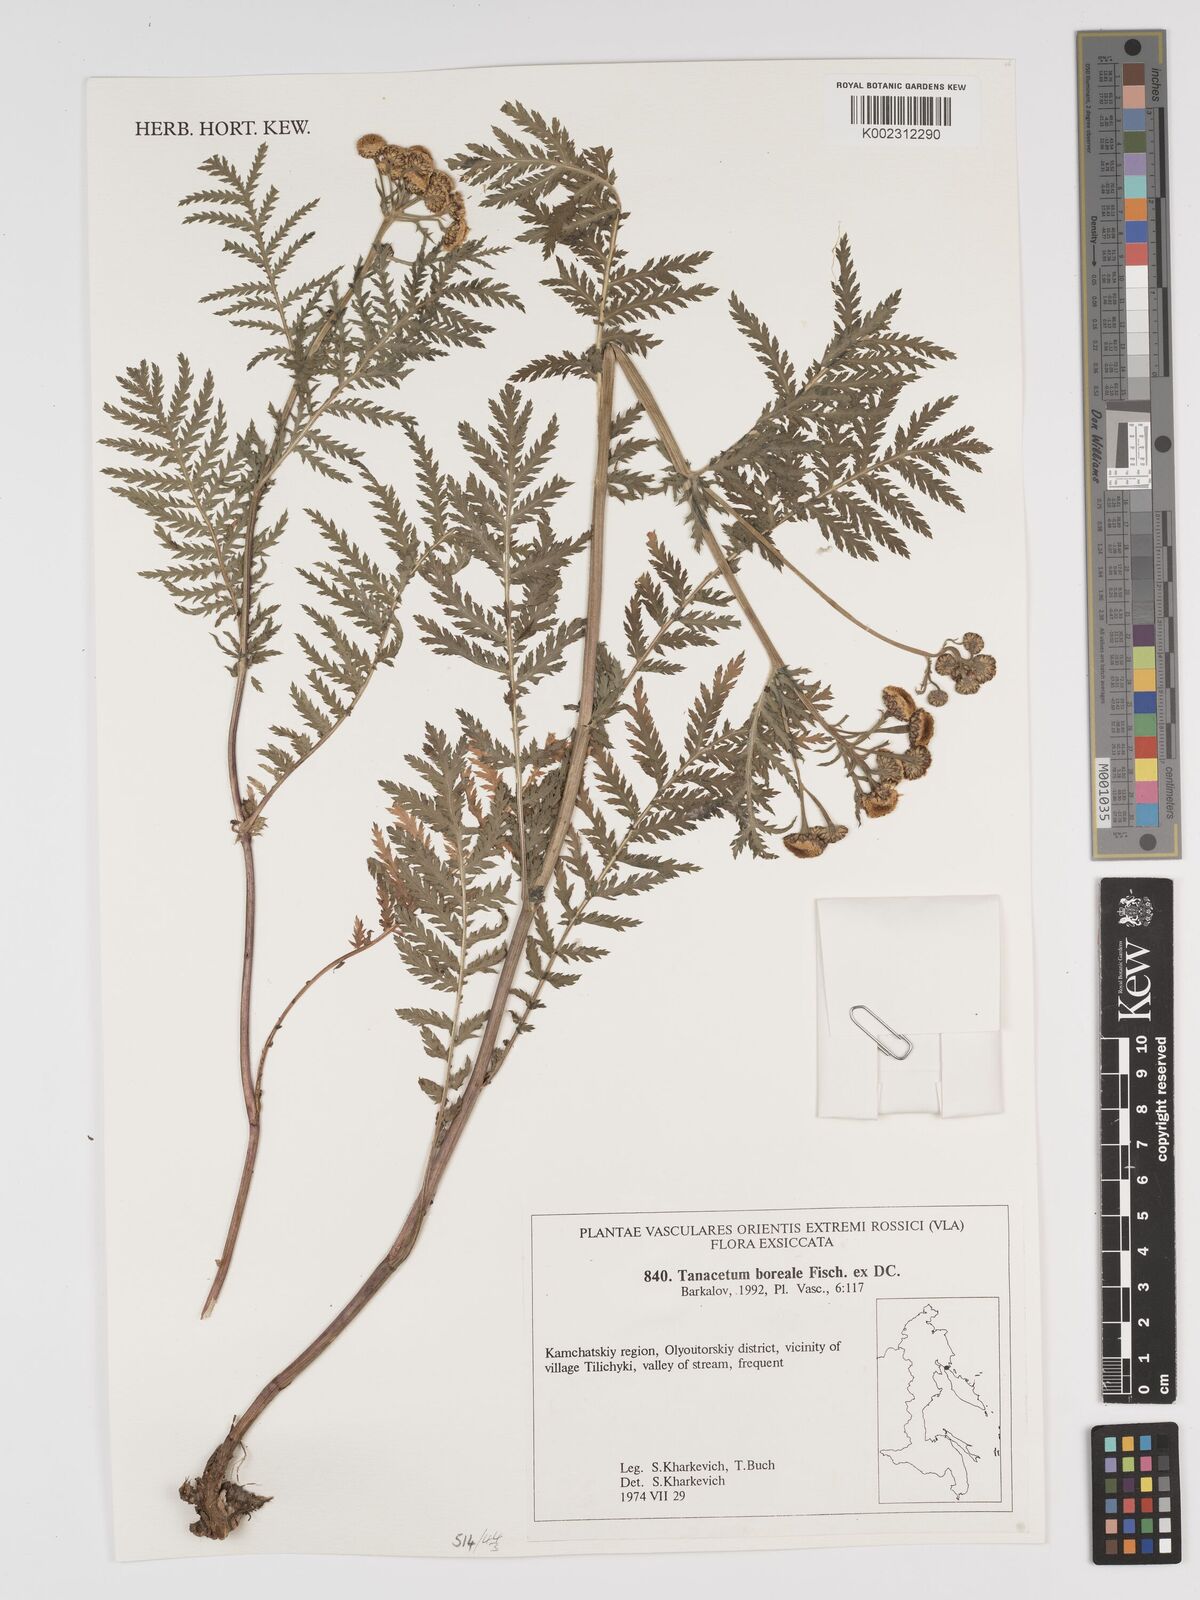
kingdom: Plantae
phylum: Tracheophyta
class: Magnoliopsida
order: Asterales
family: Asteraceae
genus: Tanacetum
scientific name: Tanacetum vulgare
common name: Common tansy
